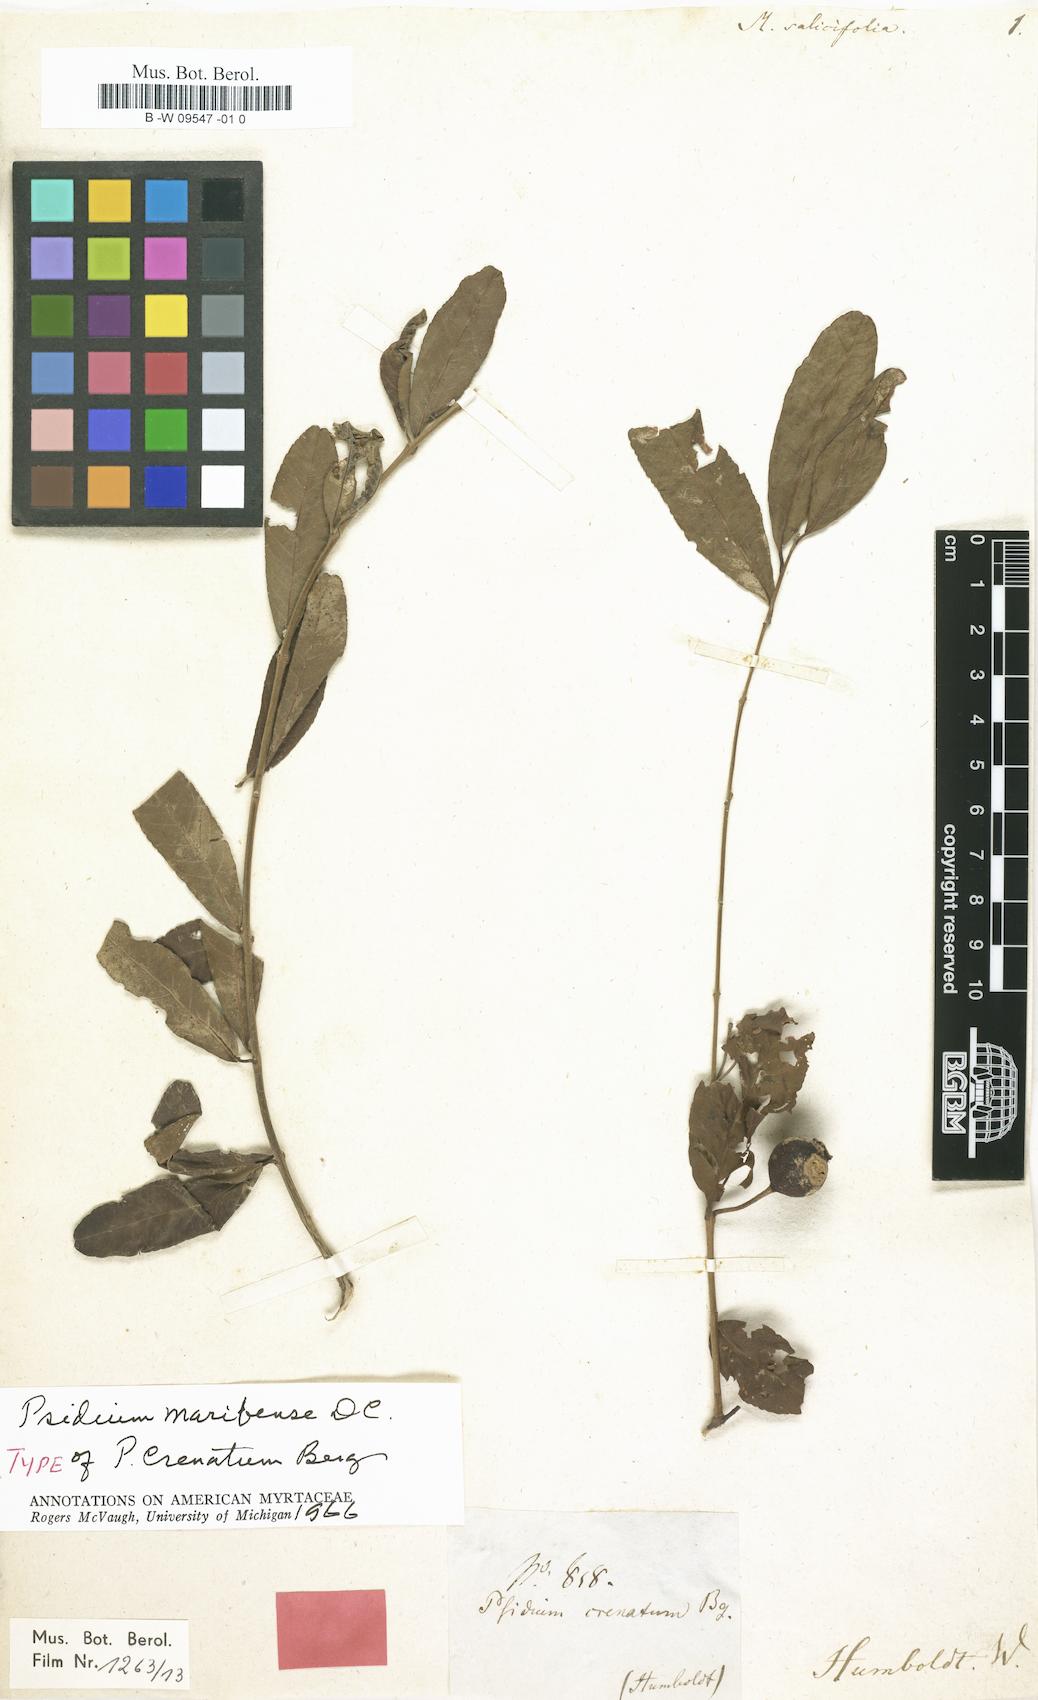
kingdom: Plantae
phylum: Tracheophyta
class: Magnoliopsida
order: Myrtales
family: Myrtaceae
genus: Blepharocalyx
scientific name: Blepharocalyx salicifolius
